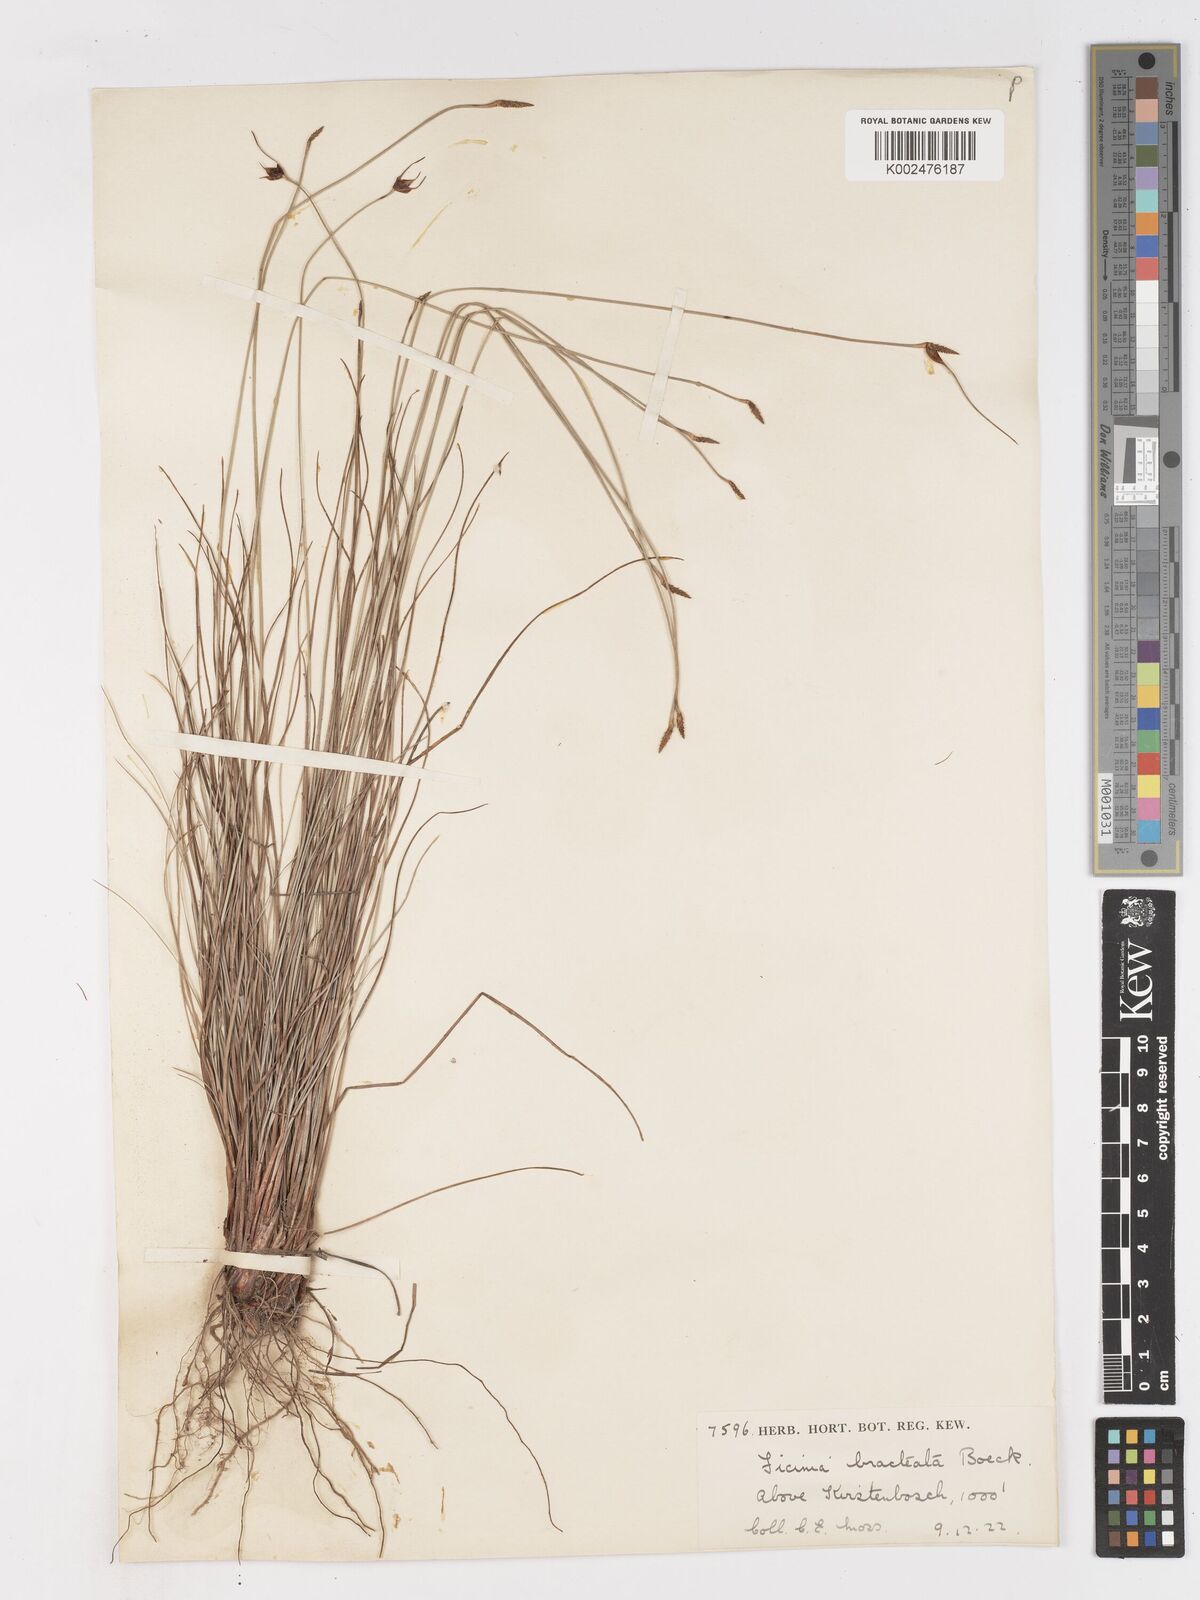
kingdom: Plantae
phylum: Tracheophyta
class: Liliopsida
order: Poales
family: Cyperaceae
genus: Ficinia
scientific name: Ficinia nigrescens
